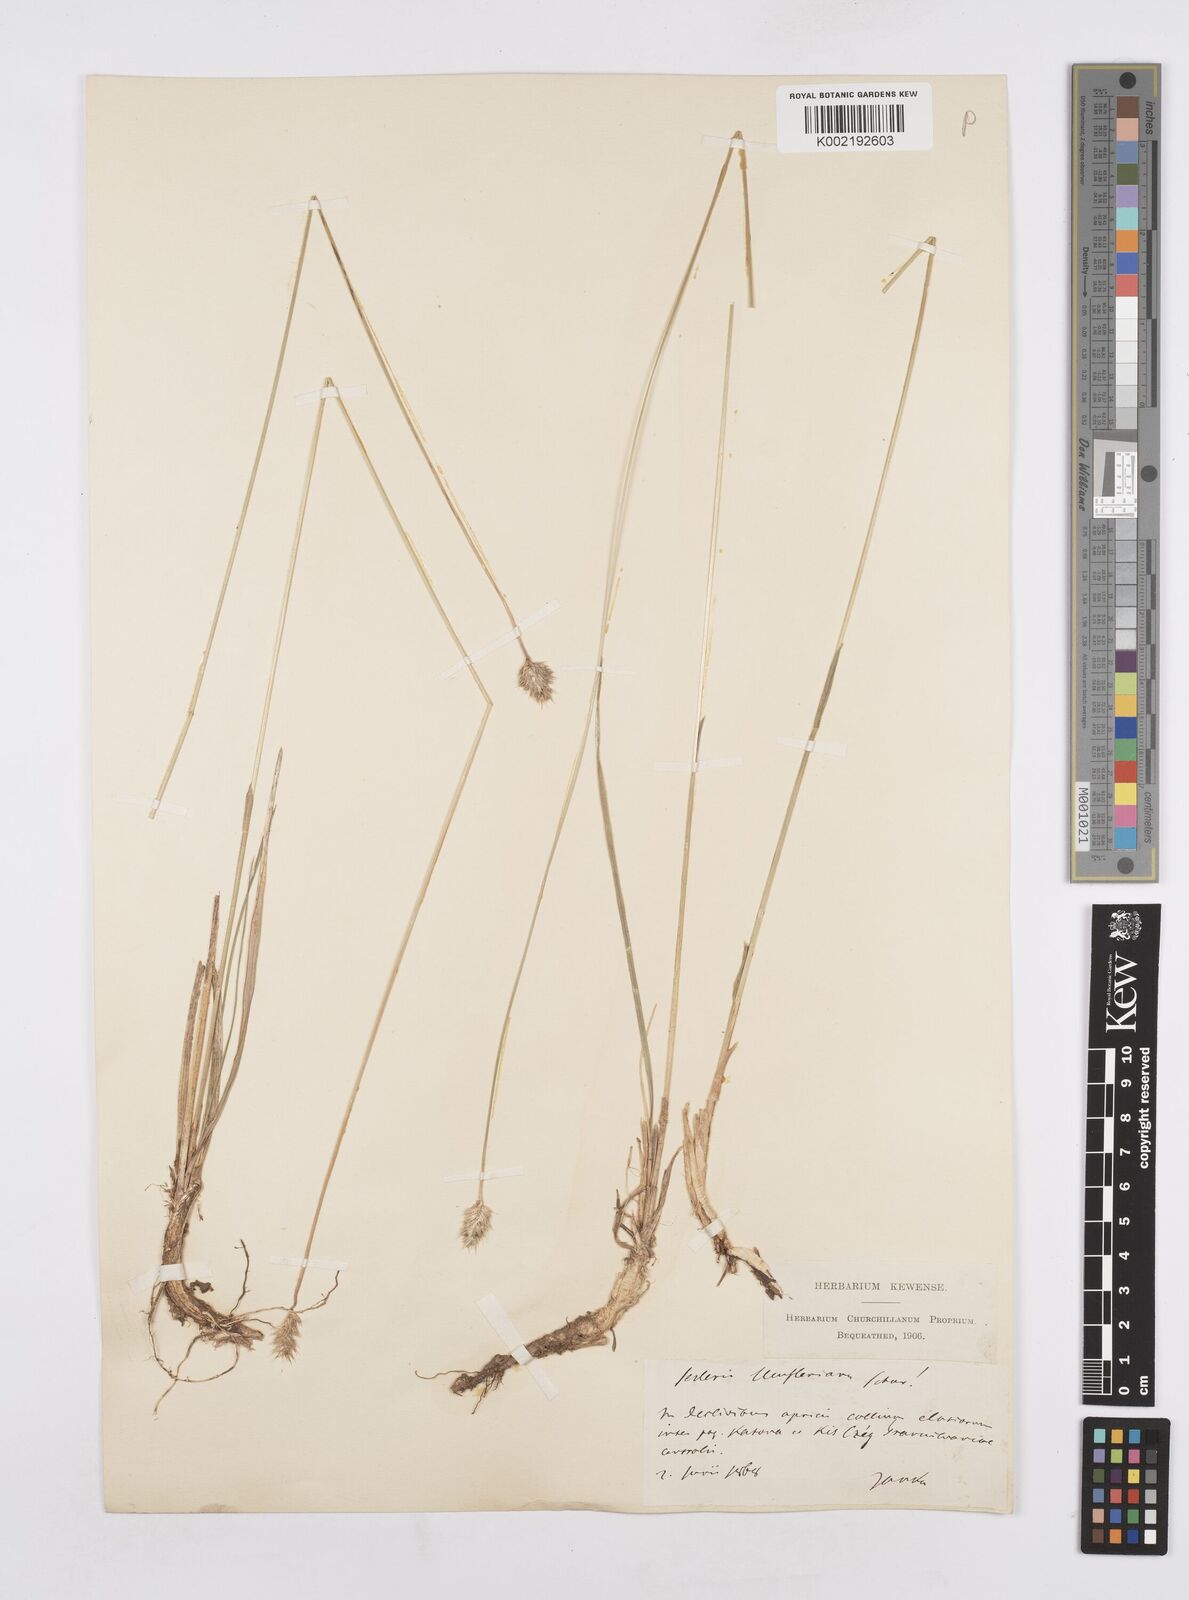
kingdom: Plantae
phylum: Tracheophyta
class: Liliopsida
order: Poales
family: Poaceae
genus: Sesleria
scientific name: Sesleria heufleriana
